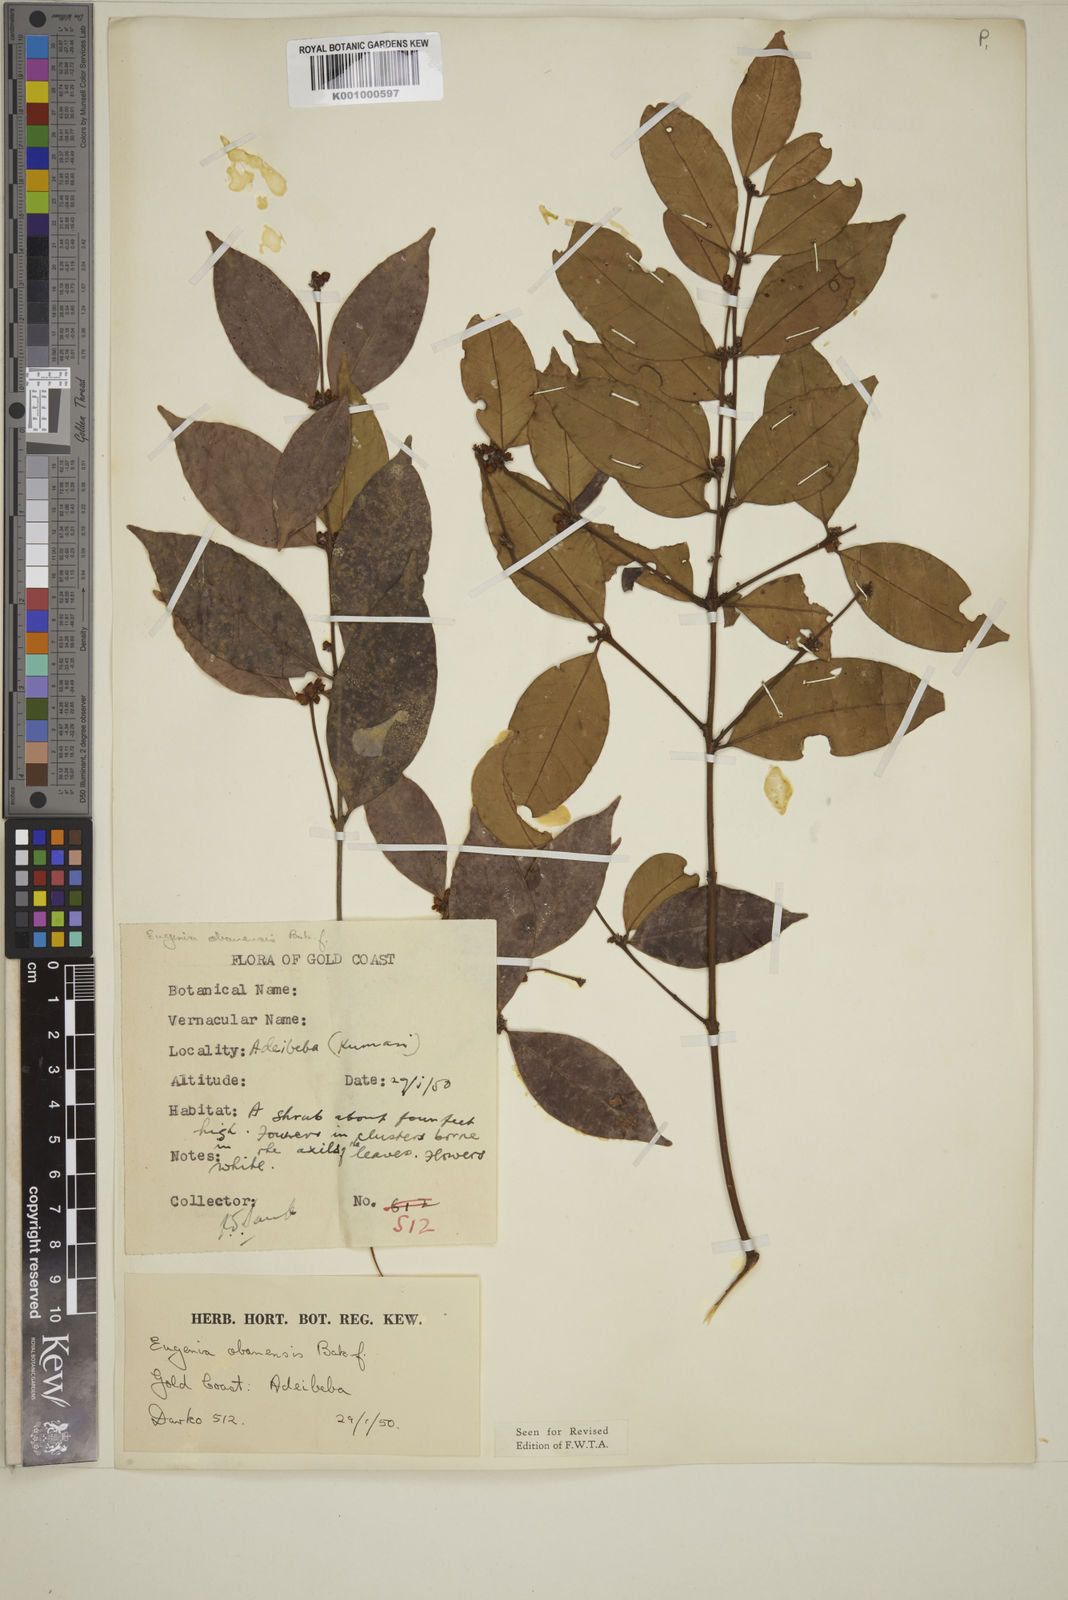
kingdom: Plantae
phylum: Tracheophyta
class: Magnoliopsida
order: Myrtales
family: Myrtaceae
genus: Eugenia
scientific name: Eugenia obanensis
